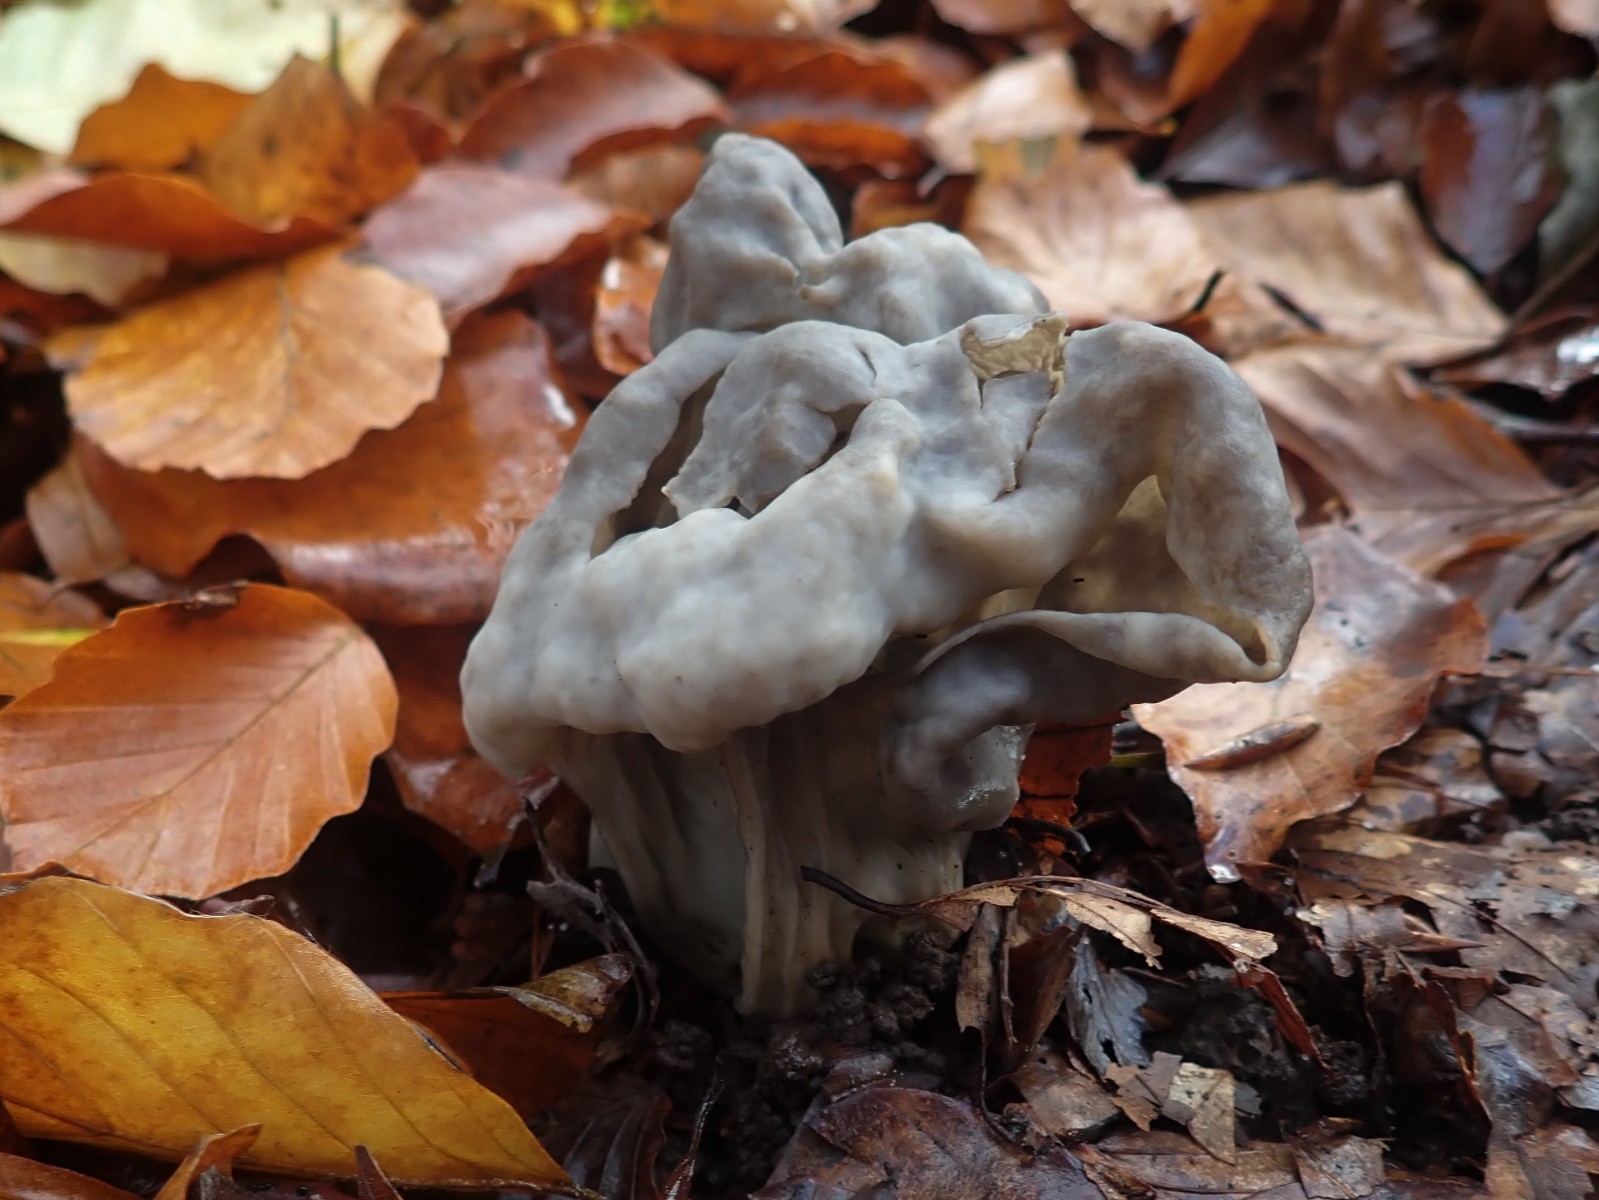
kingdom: Fungi
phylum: Ascomycota
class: Pezizomycetes
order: Pezizales
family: Helvellaceae
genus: Helvella
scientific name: Helvella lacunosa
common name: grubet foldhat
